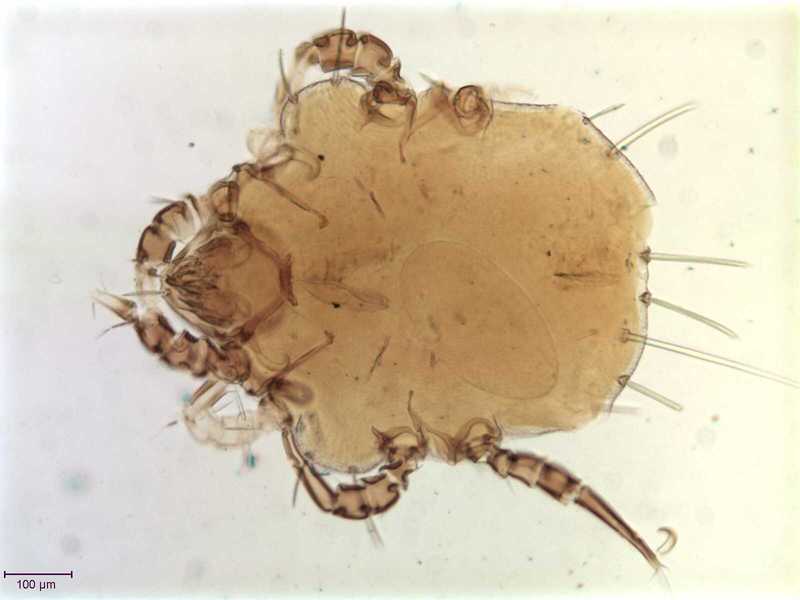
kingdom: Animalia
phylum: Arthropoda
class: Arachnida
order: Sarcoptiformes
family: Chaetodactylidae
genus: Sennertia
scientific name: Sennertia perturbans
